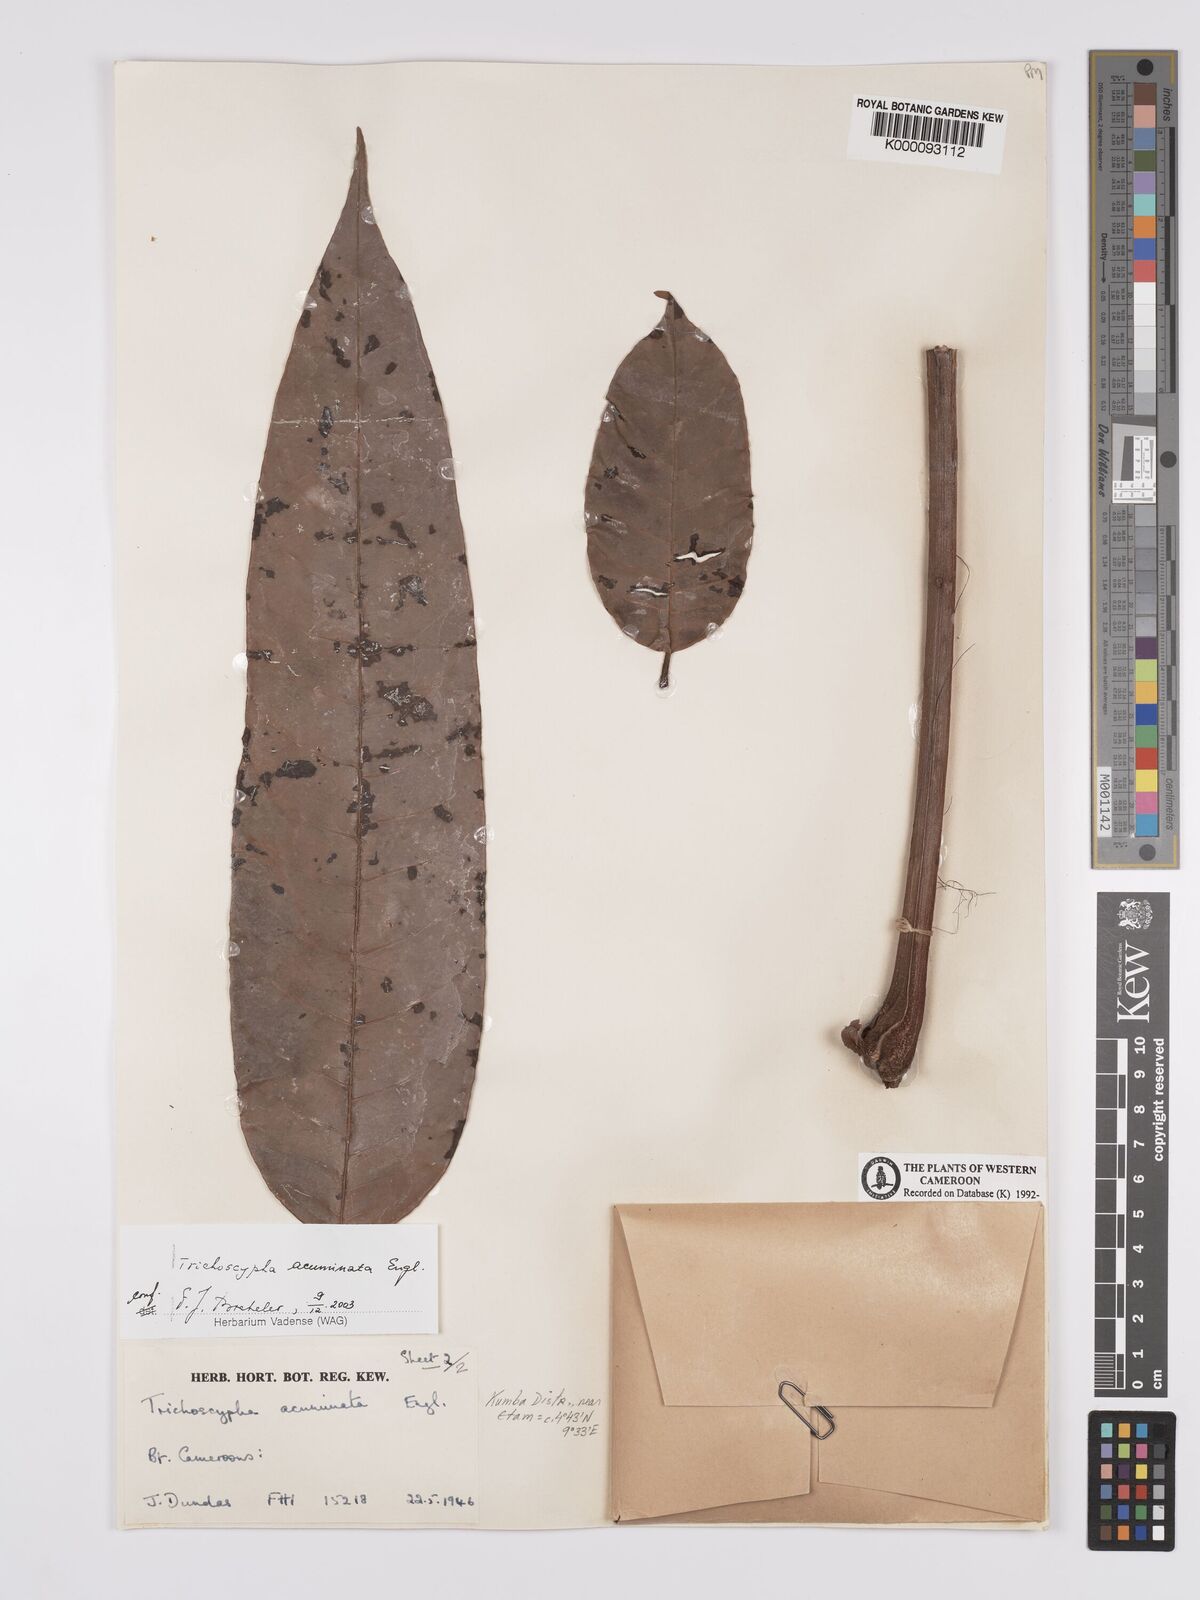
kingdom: Plantae
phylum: Tracheophyta
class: Magnoliopsida
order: Sapindales
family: Anacardiaceae
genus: Trichoscypha
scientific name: Trichoscypha acuminata
